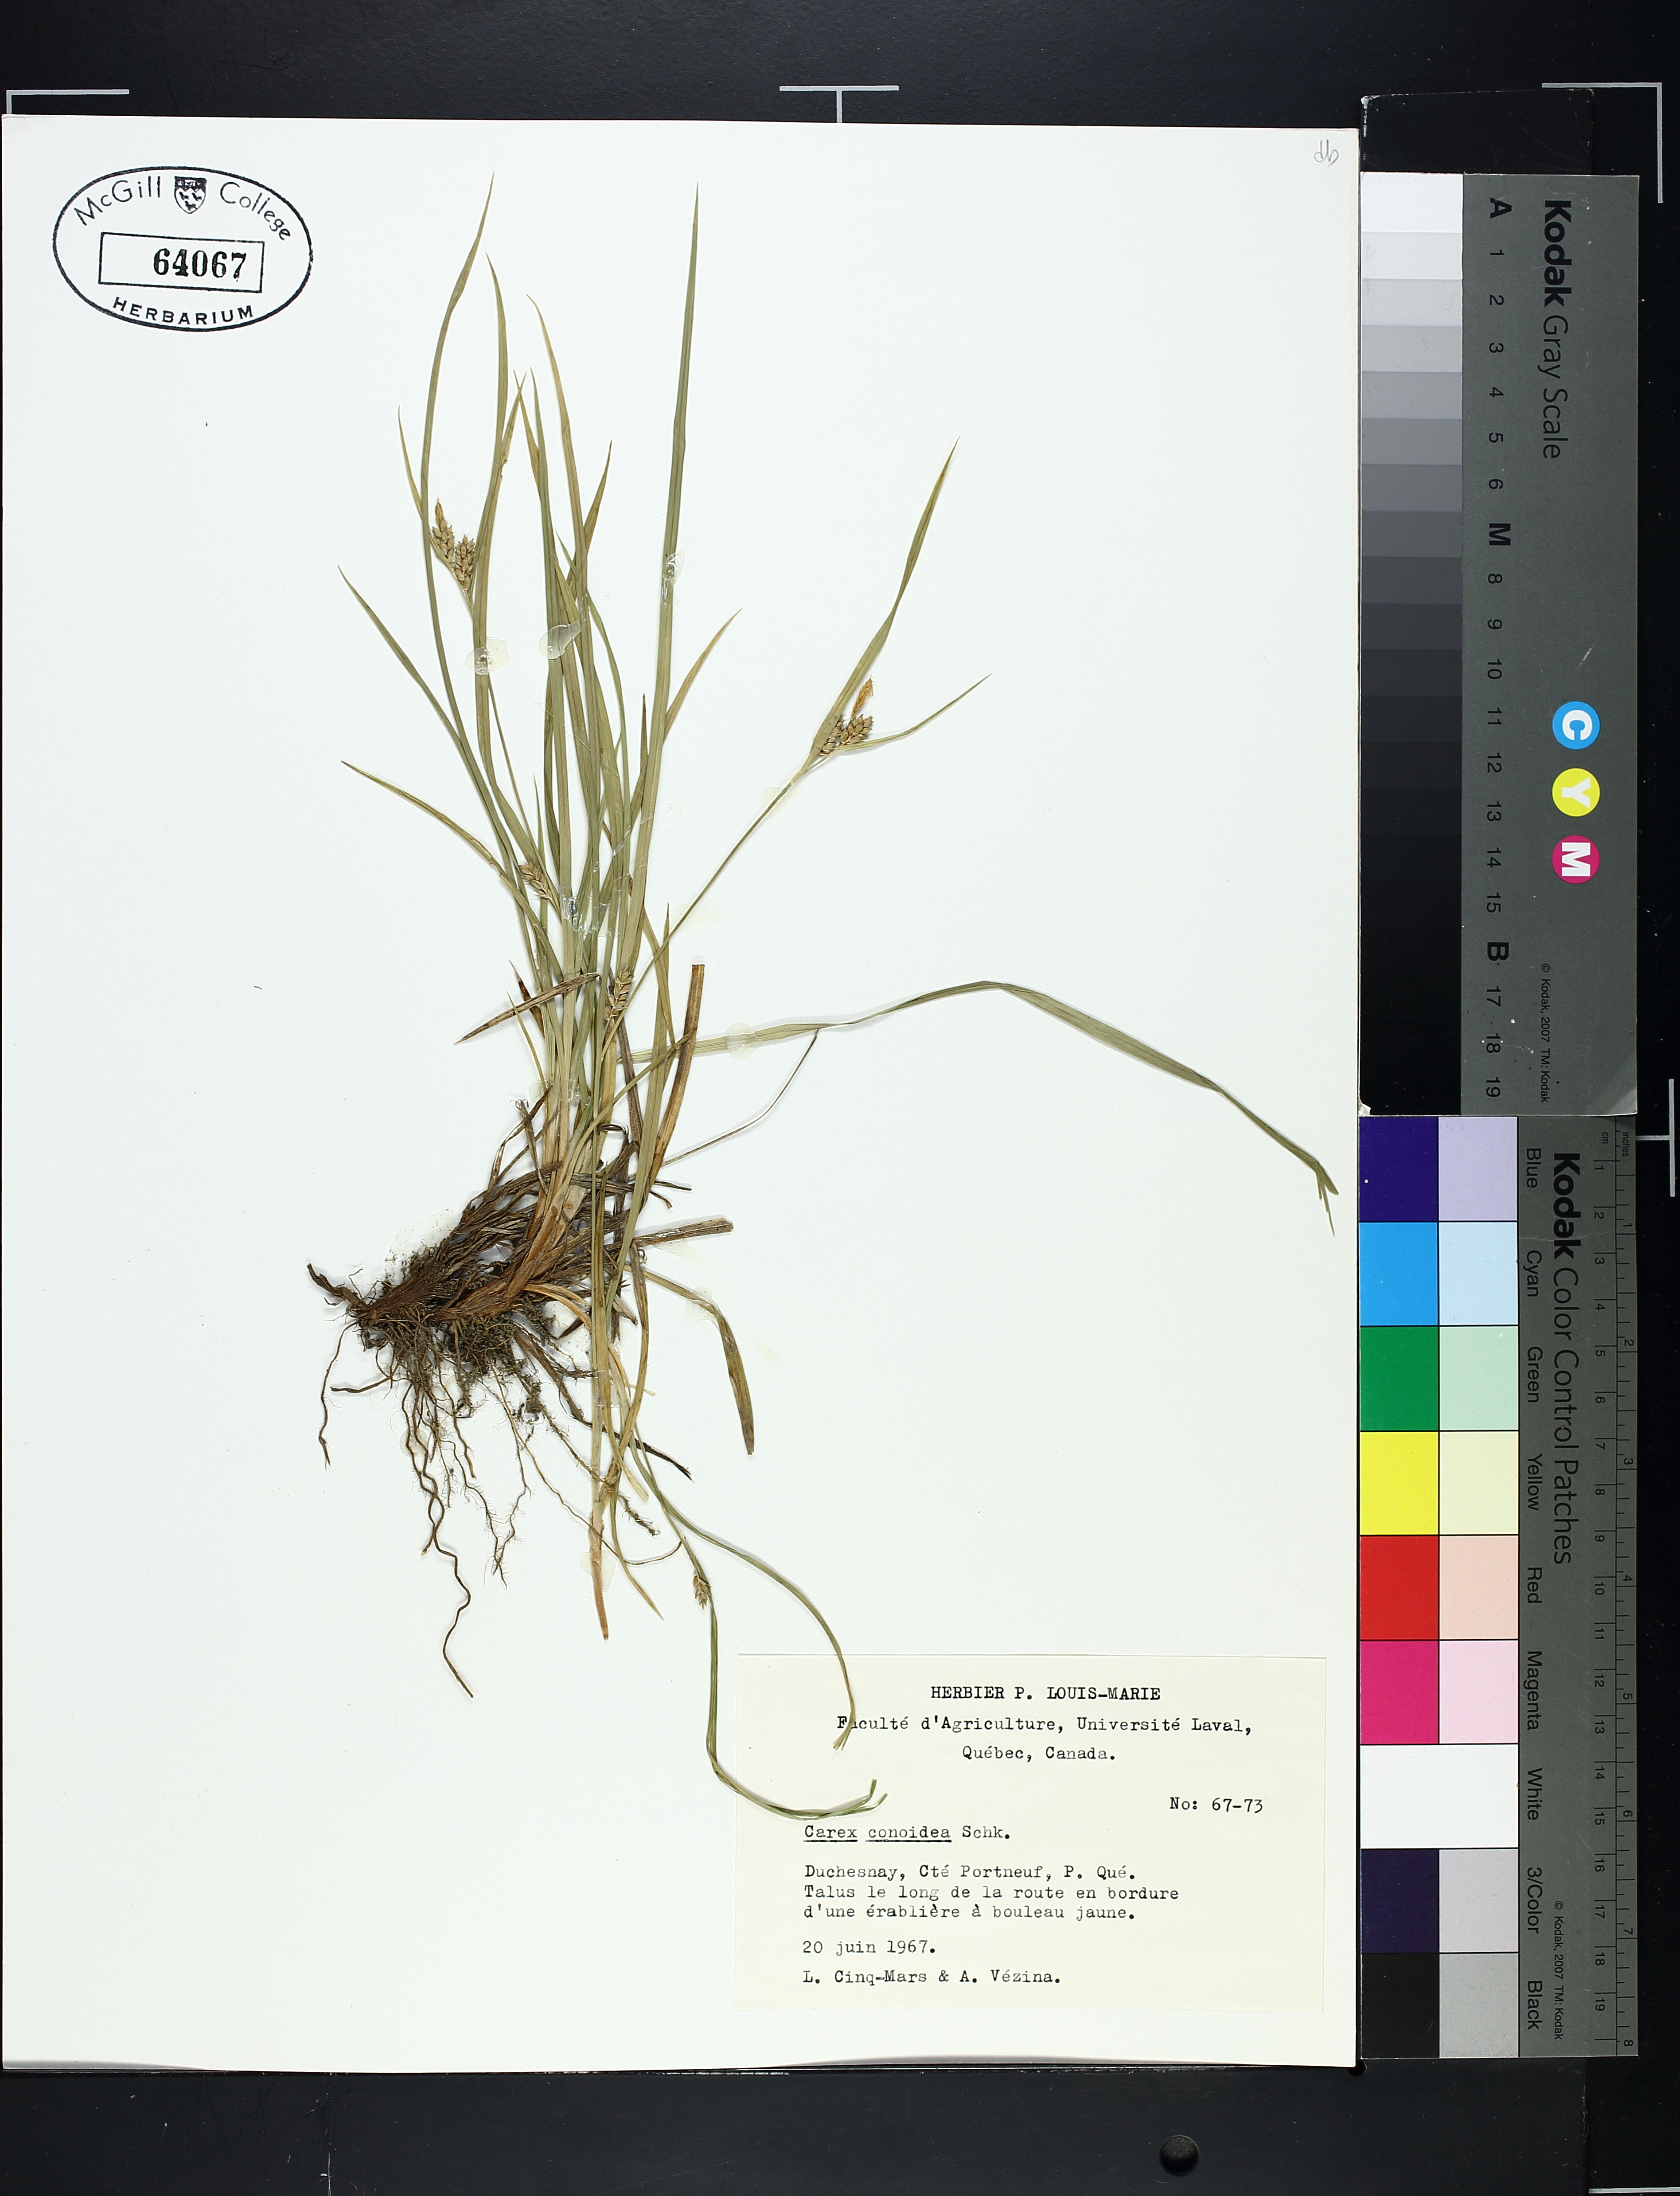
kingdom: Plantae
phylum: Tracheophyta
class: Liliopsida
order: Poales
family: Cyperaceae
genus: Carex
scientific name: Carex conoidea
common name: Cone shaped sedge
